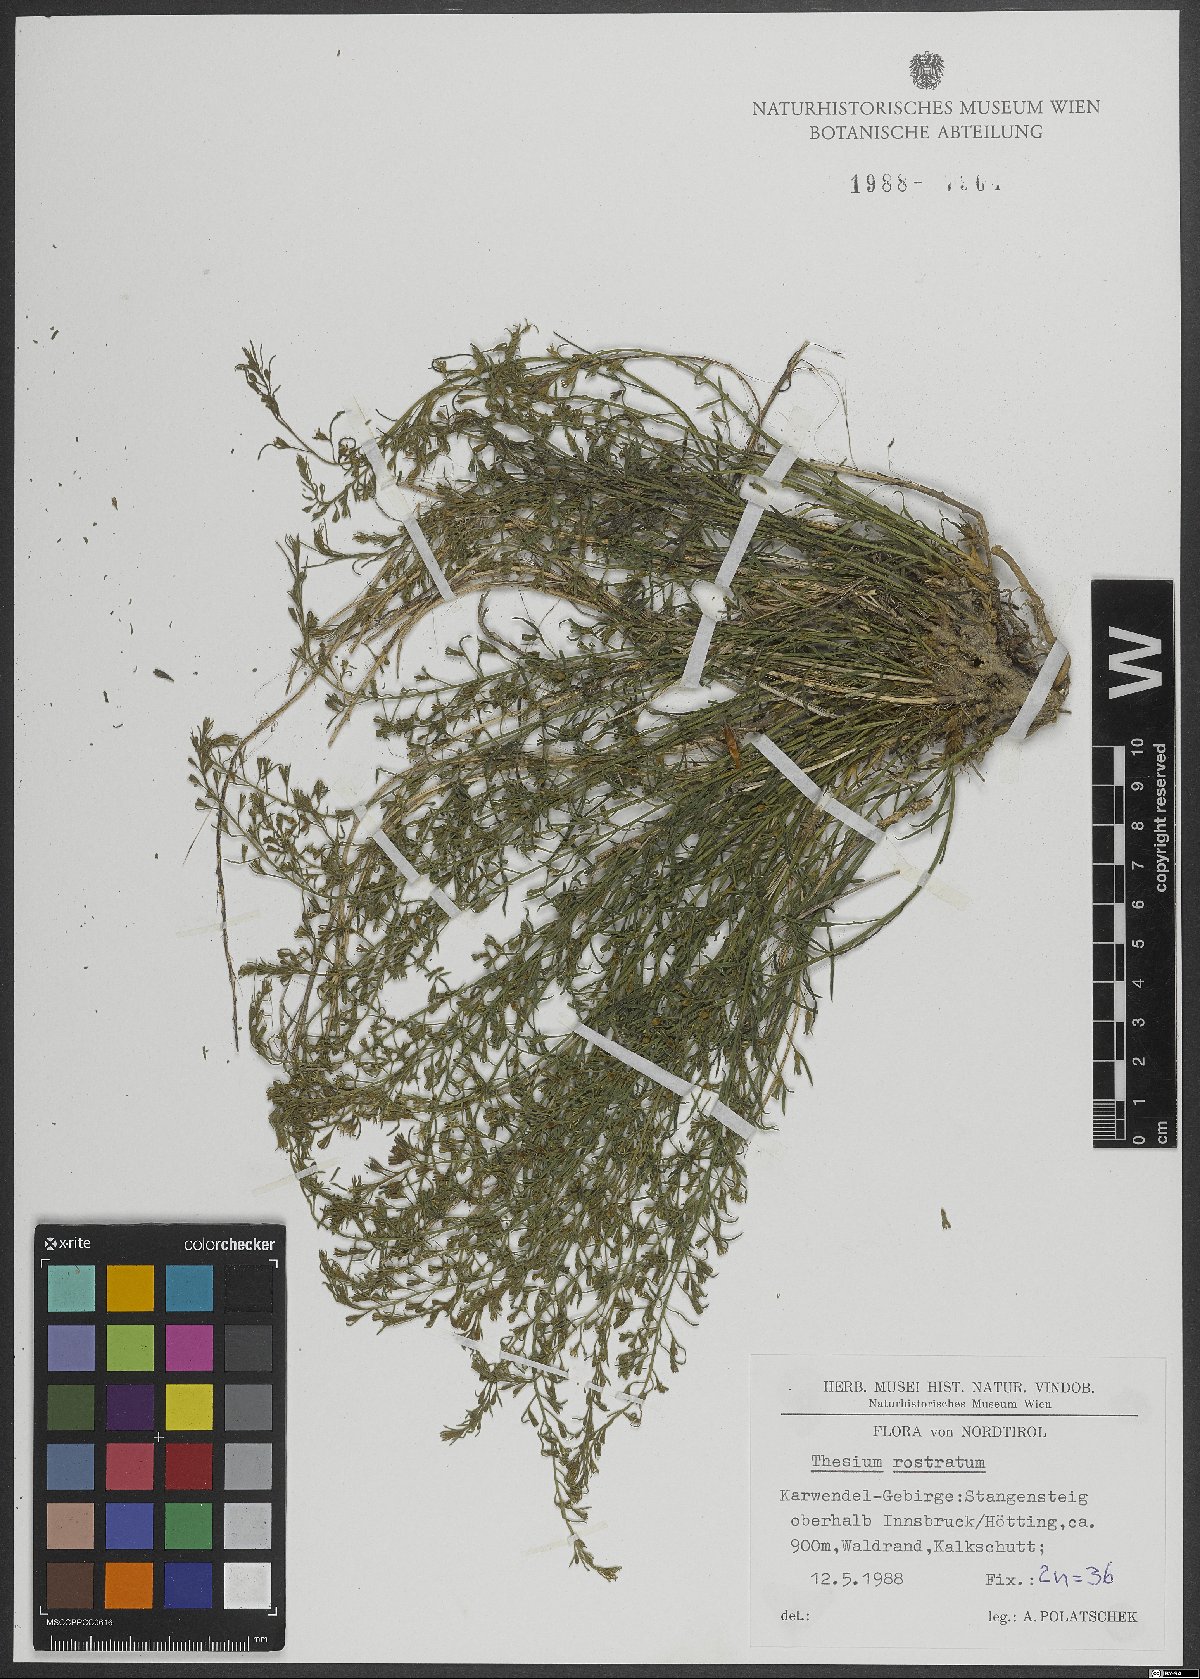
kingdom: Plantae
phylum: Tracheophyta
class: Magnoliopsida
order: Santalales
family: Thesiaceae
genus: Thesium
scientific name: Thesium rostratum
